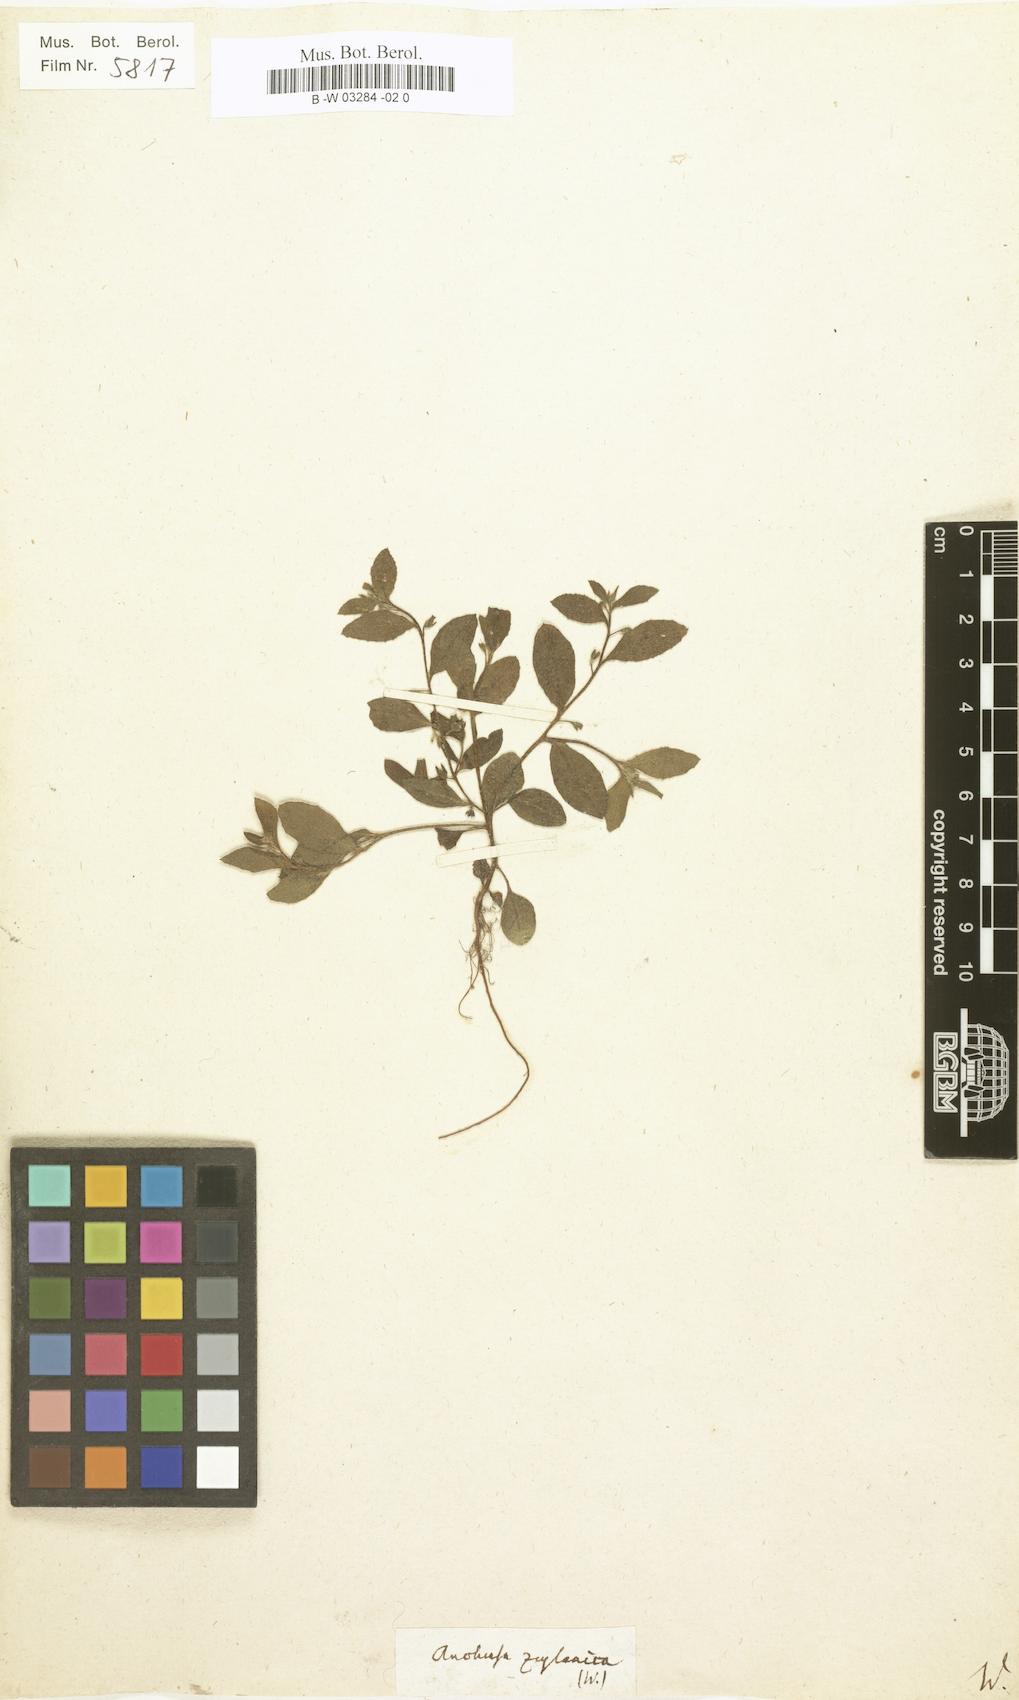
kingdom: Plantae
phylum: Tracheophyta
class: Magnoliopsida
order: Boraginales
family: Boraginaceae
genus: Cynoglossum
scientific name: Cynoglossum borbonicum
